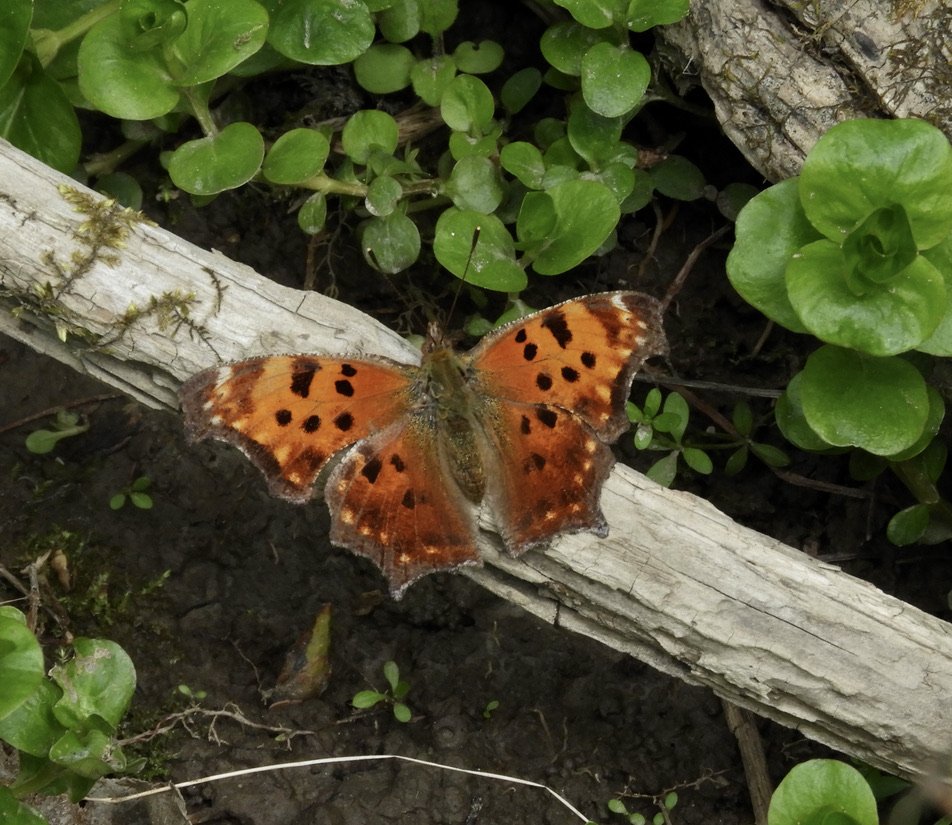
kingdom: Animalia
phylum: Arthropoda
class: Insecta
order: Lepidoptera
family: Nymphalidae
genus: Polygonia
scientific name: Polygonia comma
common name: Eastern Comma
